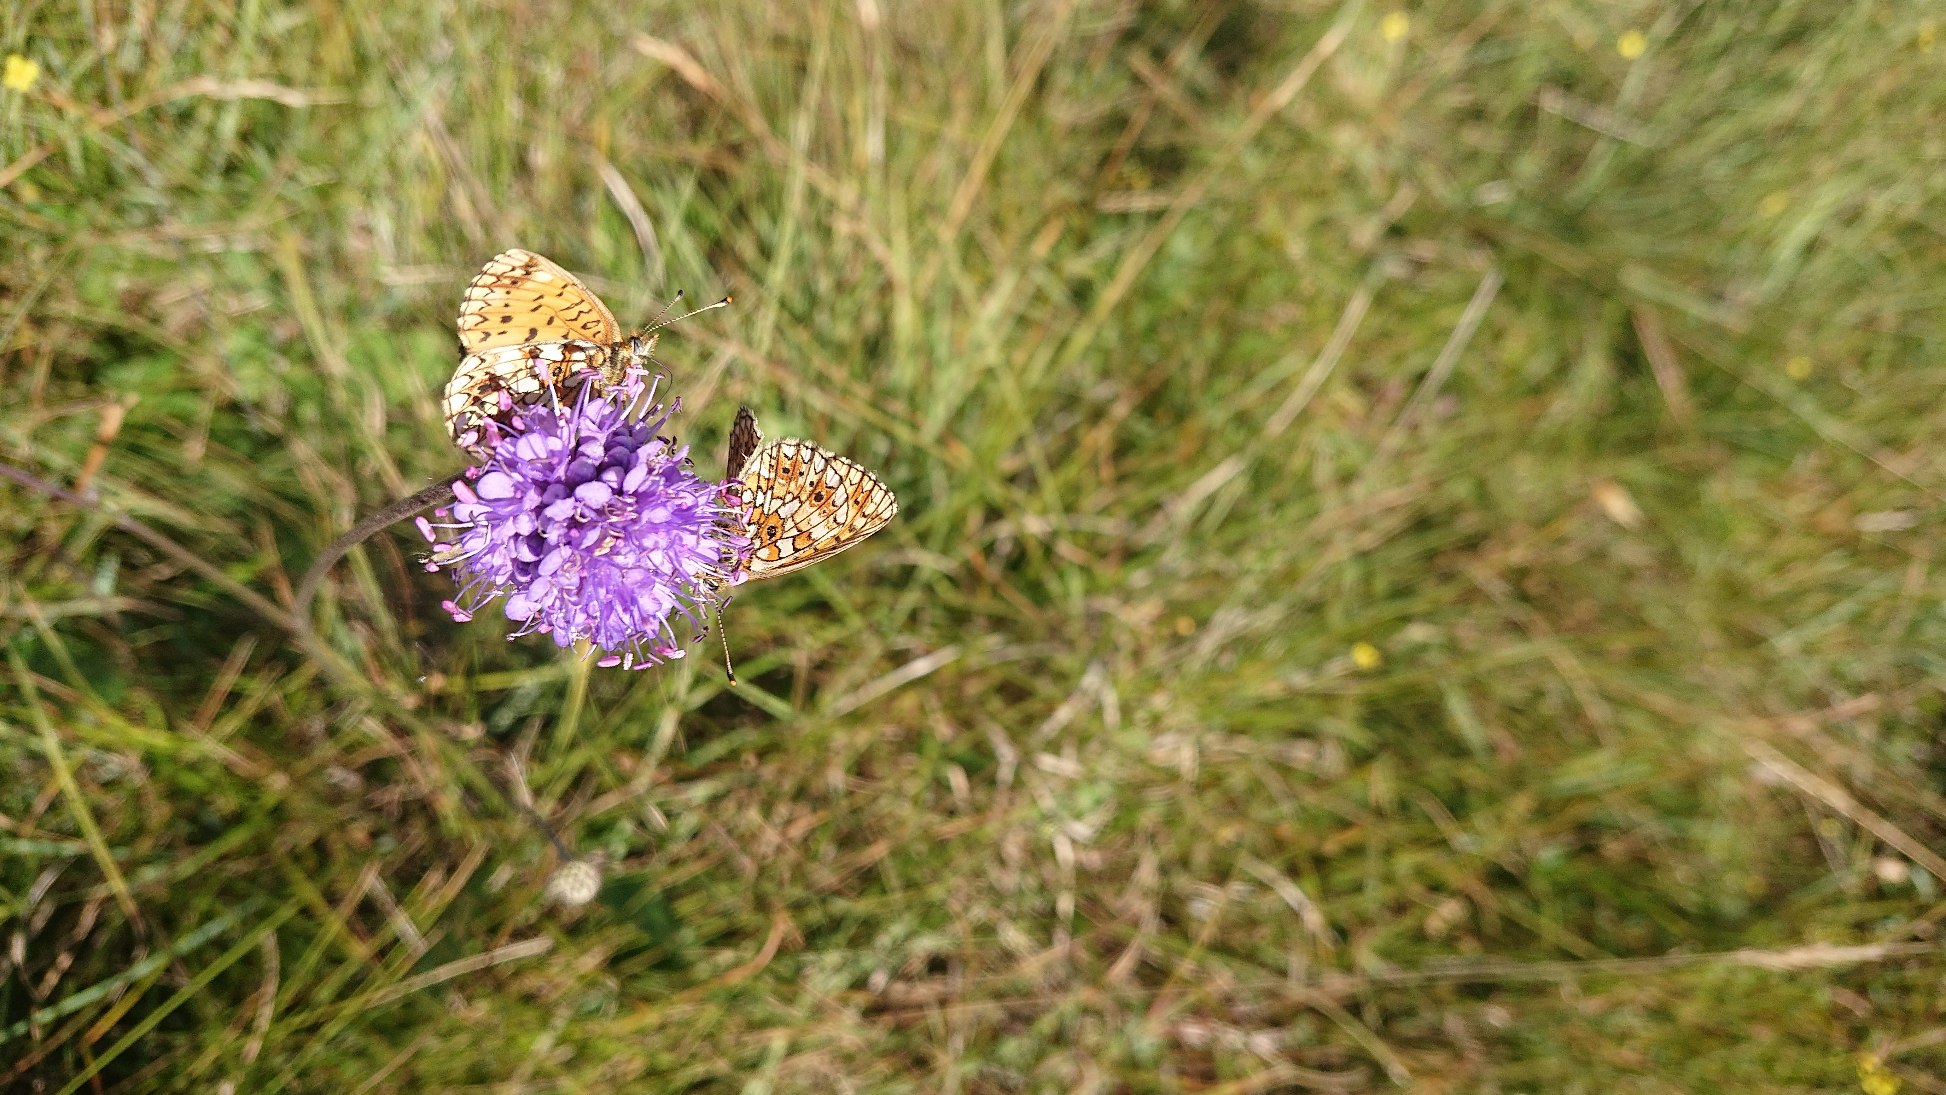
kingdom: Animalia
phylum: Arthropoda
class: Insecta
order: Lepidoptera
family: Nymphalidae
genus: Boloria
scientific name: Boloria selene
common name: Brunlig perlemorsommerfugl
